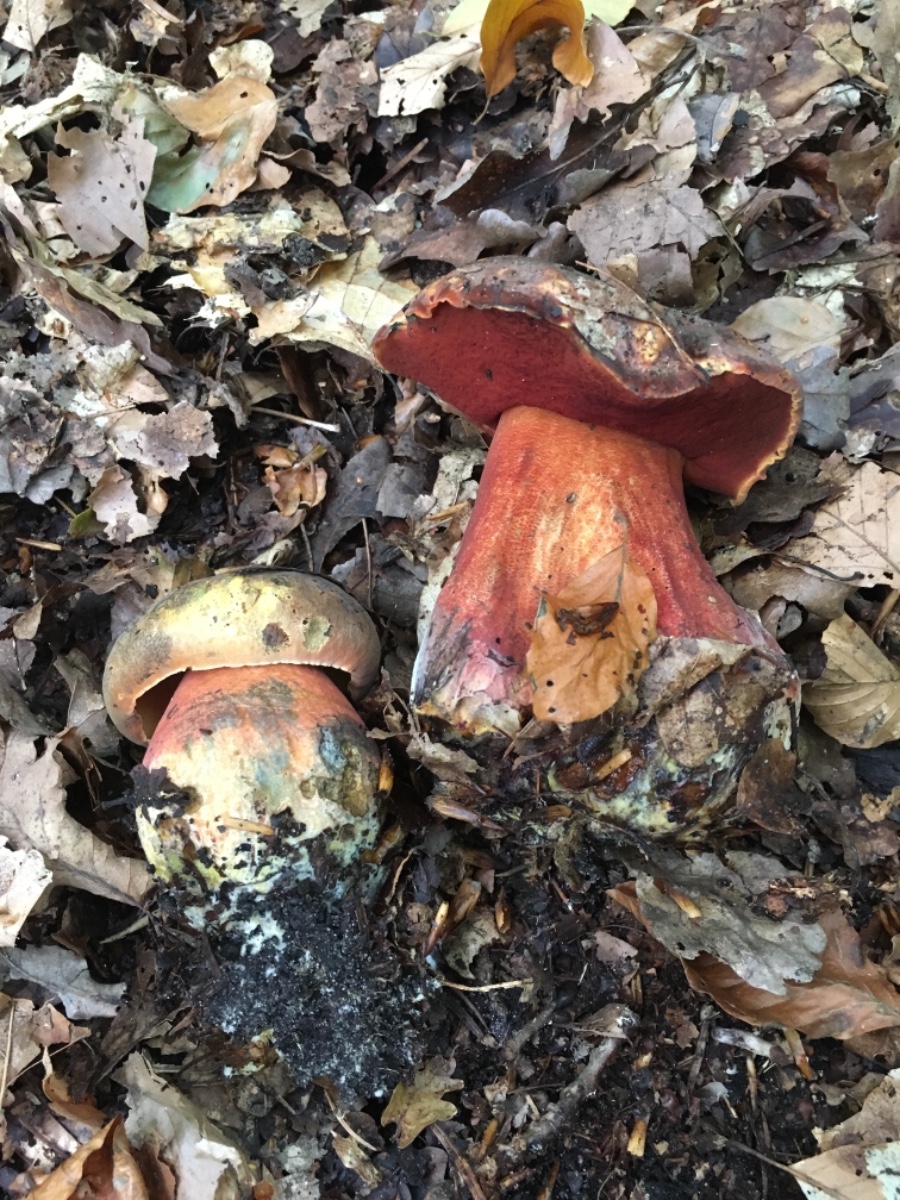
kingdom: Fungi
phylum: Basidiomycota
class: Agaricomycetes
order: Boletales
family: Boletaceae
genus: Neoboletus
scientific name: Neoboletus erythropus
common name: punktstokket indigorørhat
